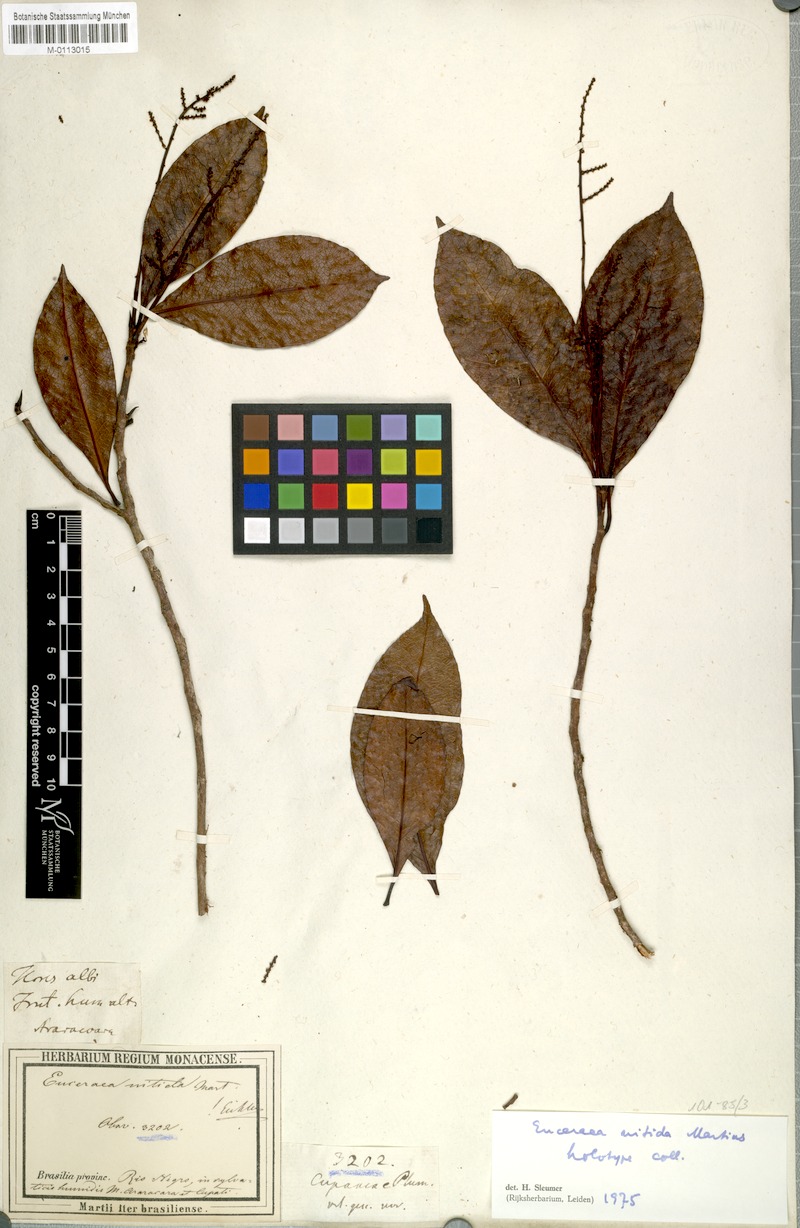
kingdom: Plantae
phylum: Tracheophyta
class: Magnoliopsida
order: Malpighiales
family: Salicaceae
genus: Casearia
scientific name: Casearia euceraea
